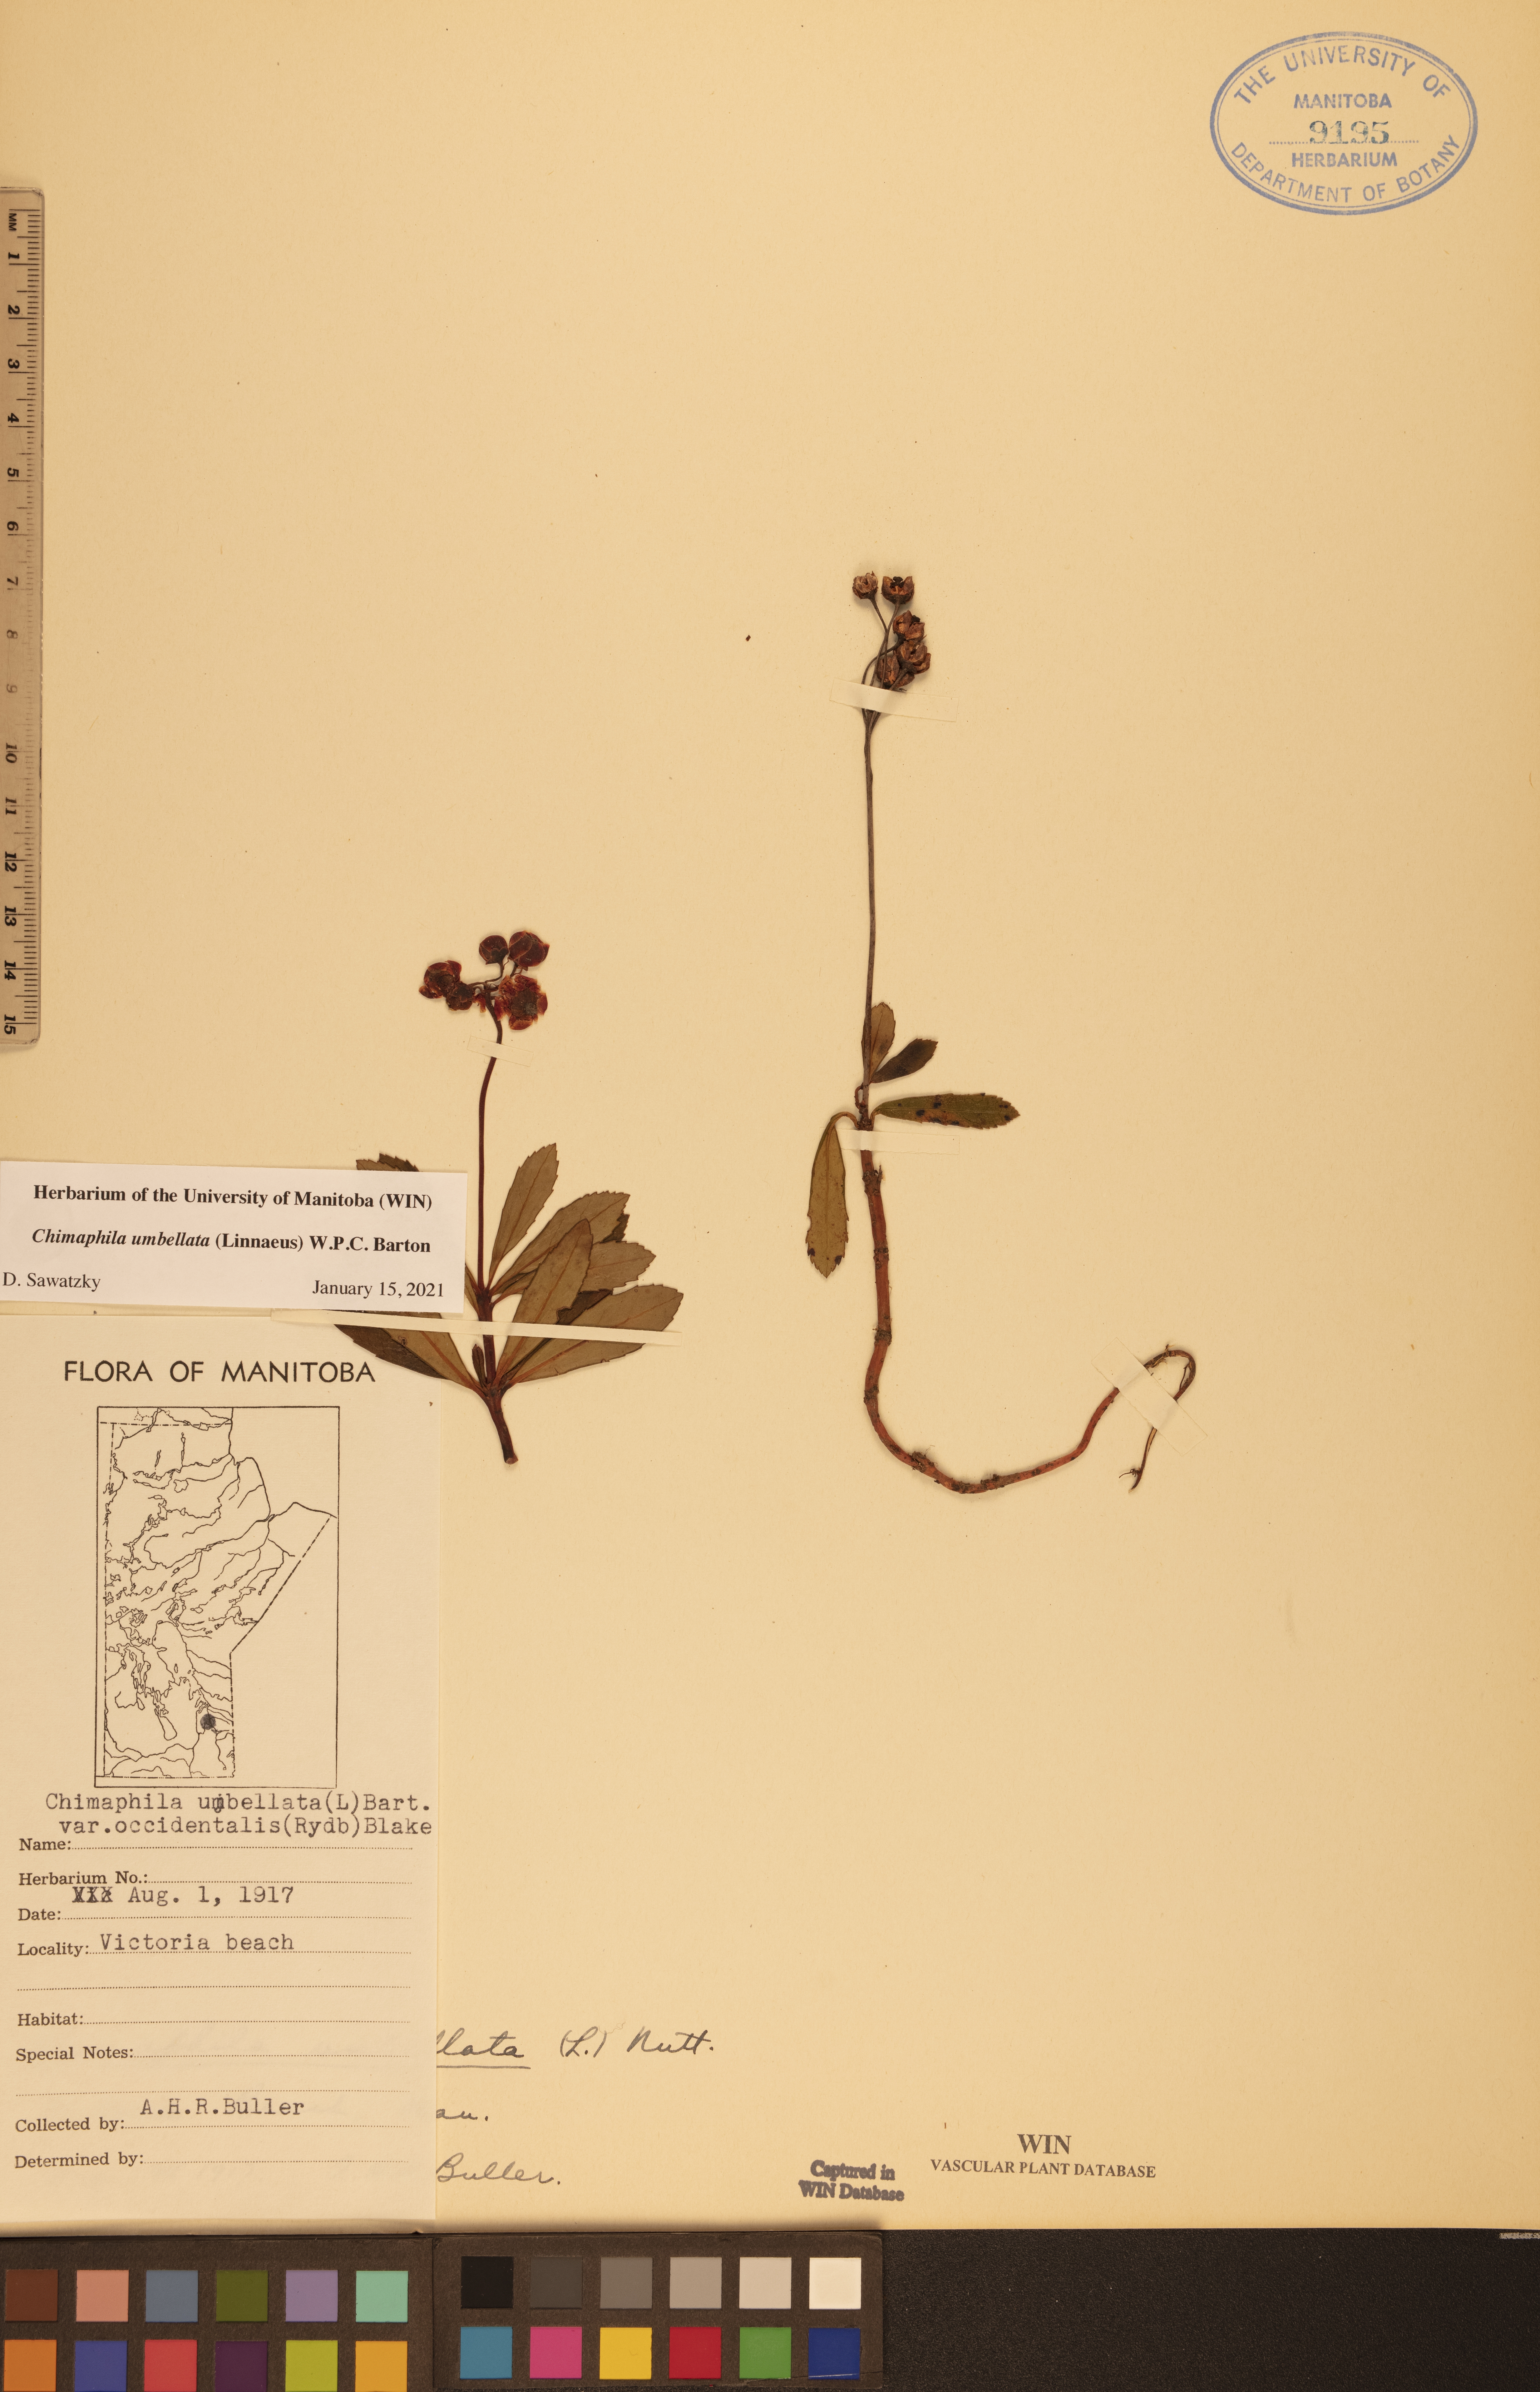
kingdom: Plantae
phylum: Tracheophyta
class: Magnoliopsida
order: Ericales
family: Ericaceae
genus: Chimaphila
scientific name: Chimaphila umbellata
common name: Pipsissewa
